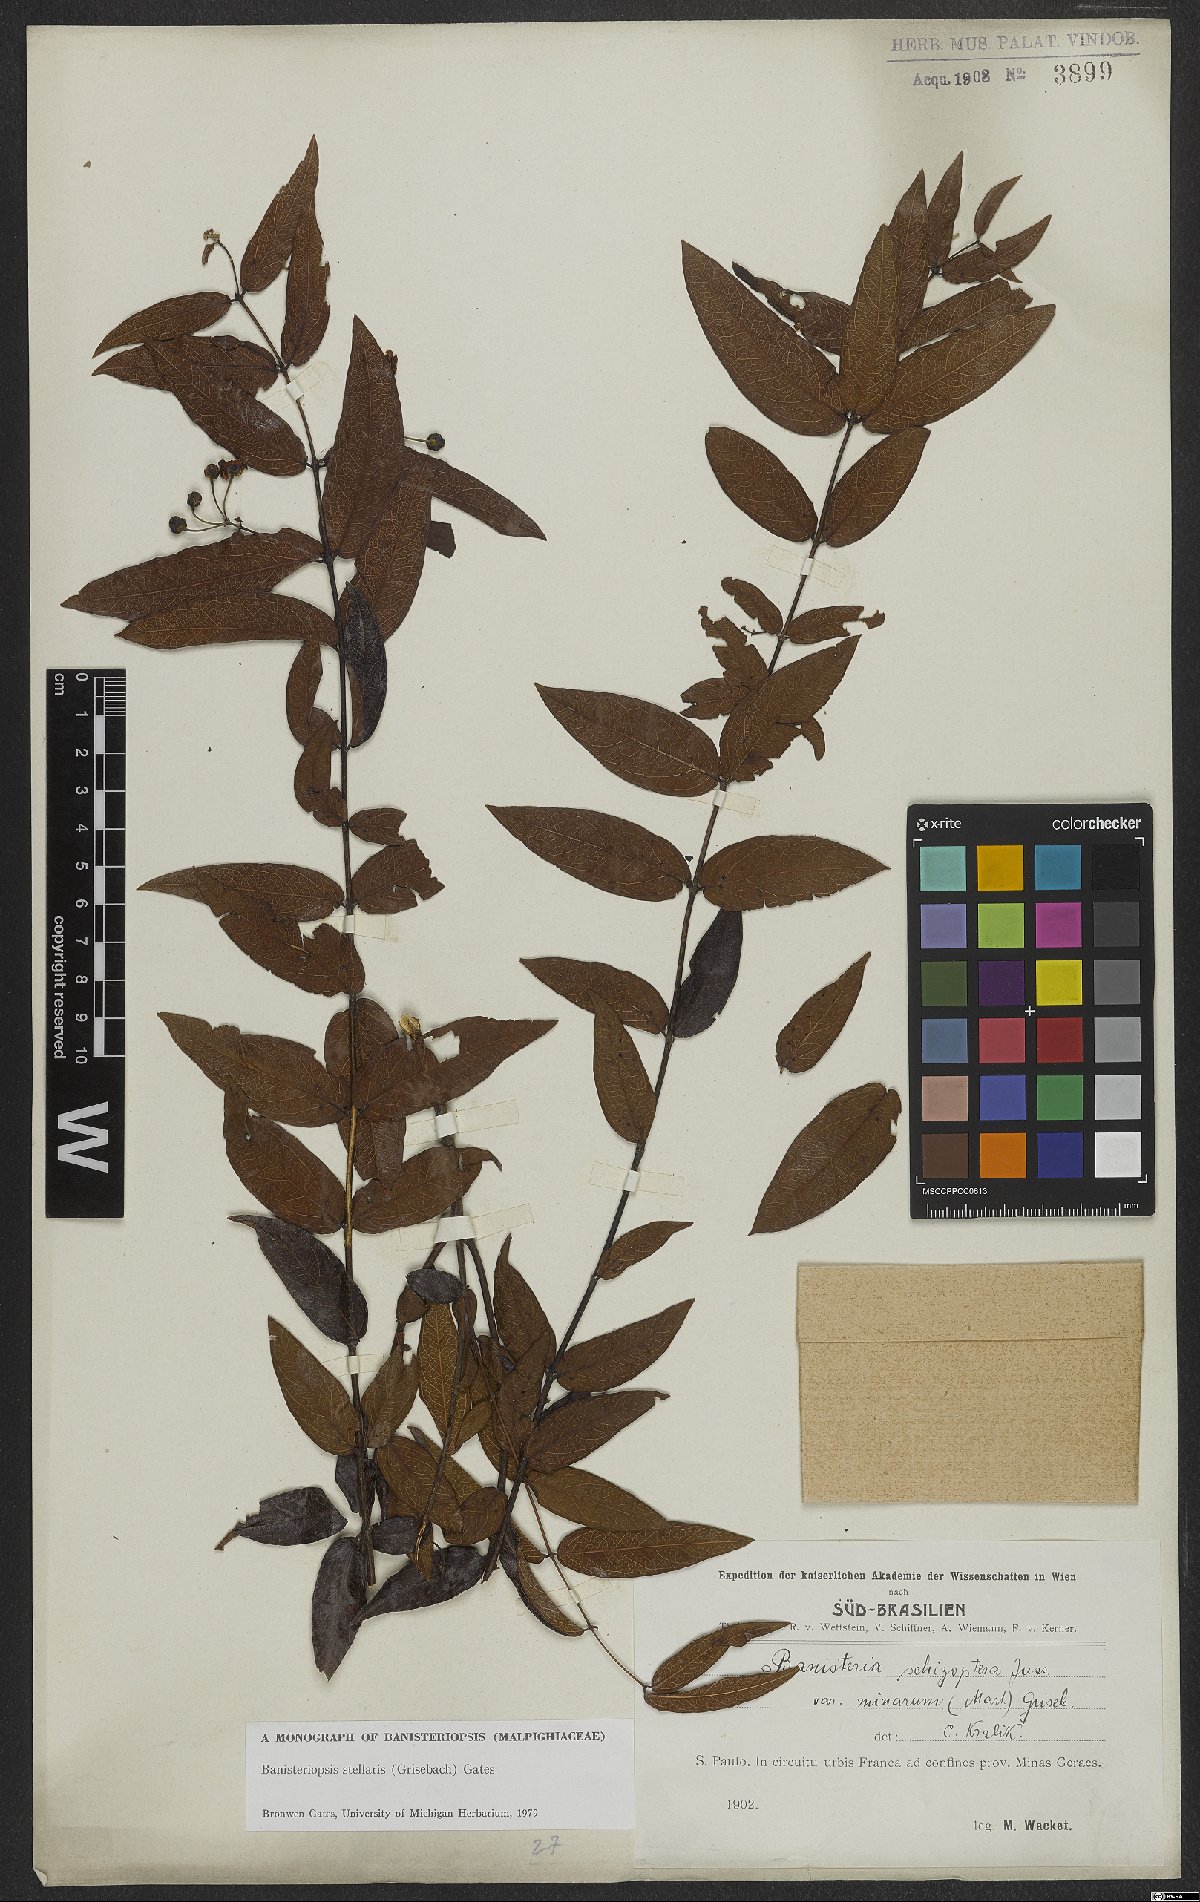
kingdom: Plantae
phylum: Tracheophyta
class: Magnoliopsida
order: Malpighiales
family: Malpighiaceae
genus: Banisteriopsis
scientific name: Banisteriopsis stellaris
